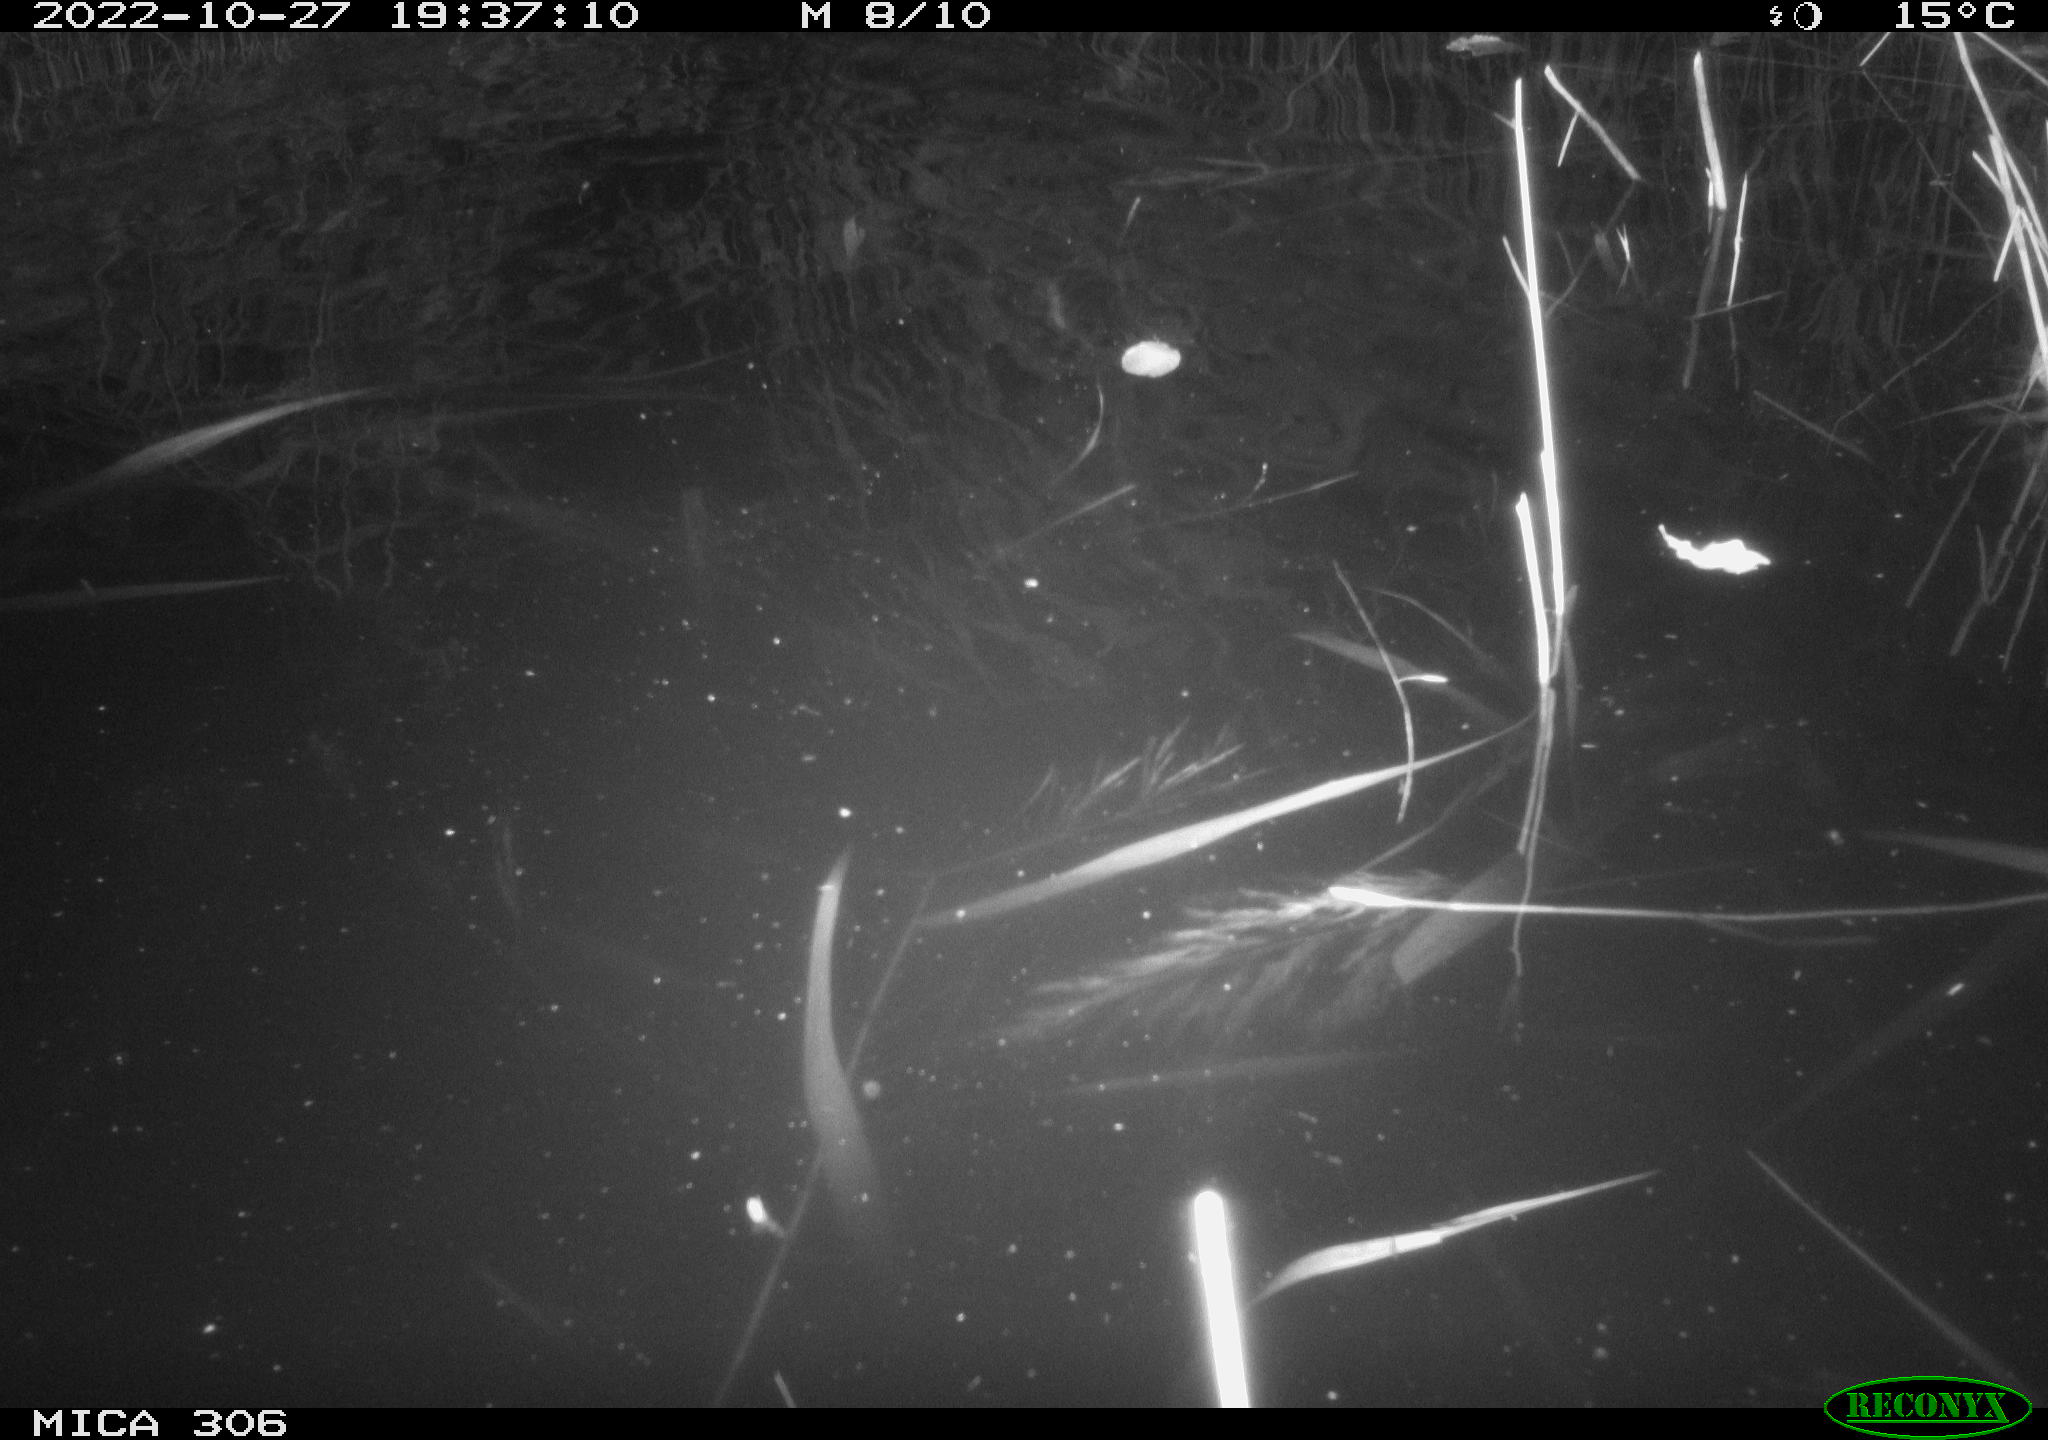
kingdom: Animalia
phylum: Chordata
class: Mammalia
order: Rodentia
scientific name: Rodentia
